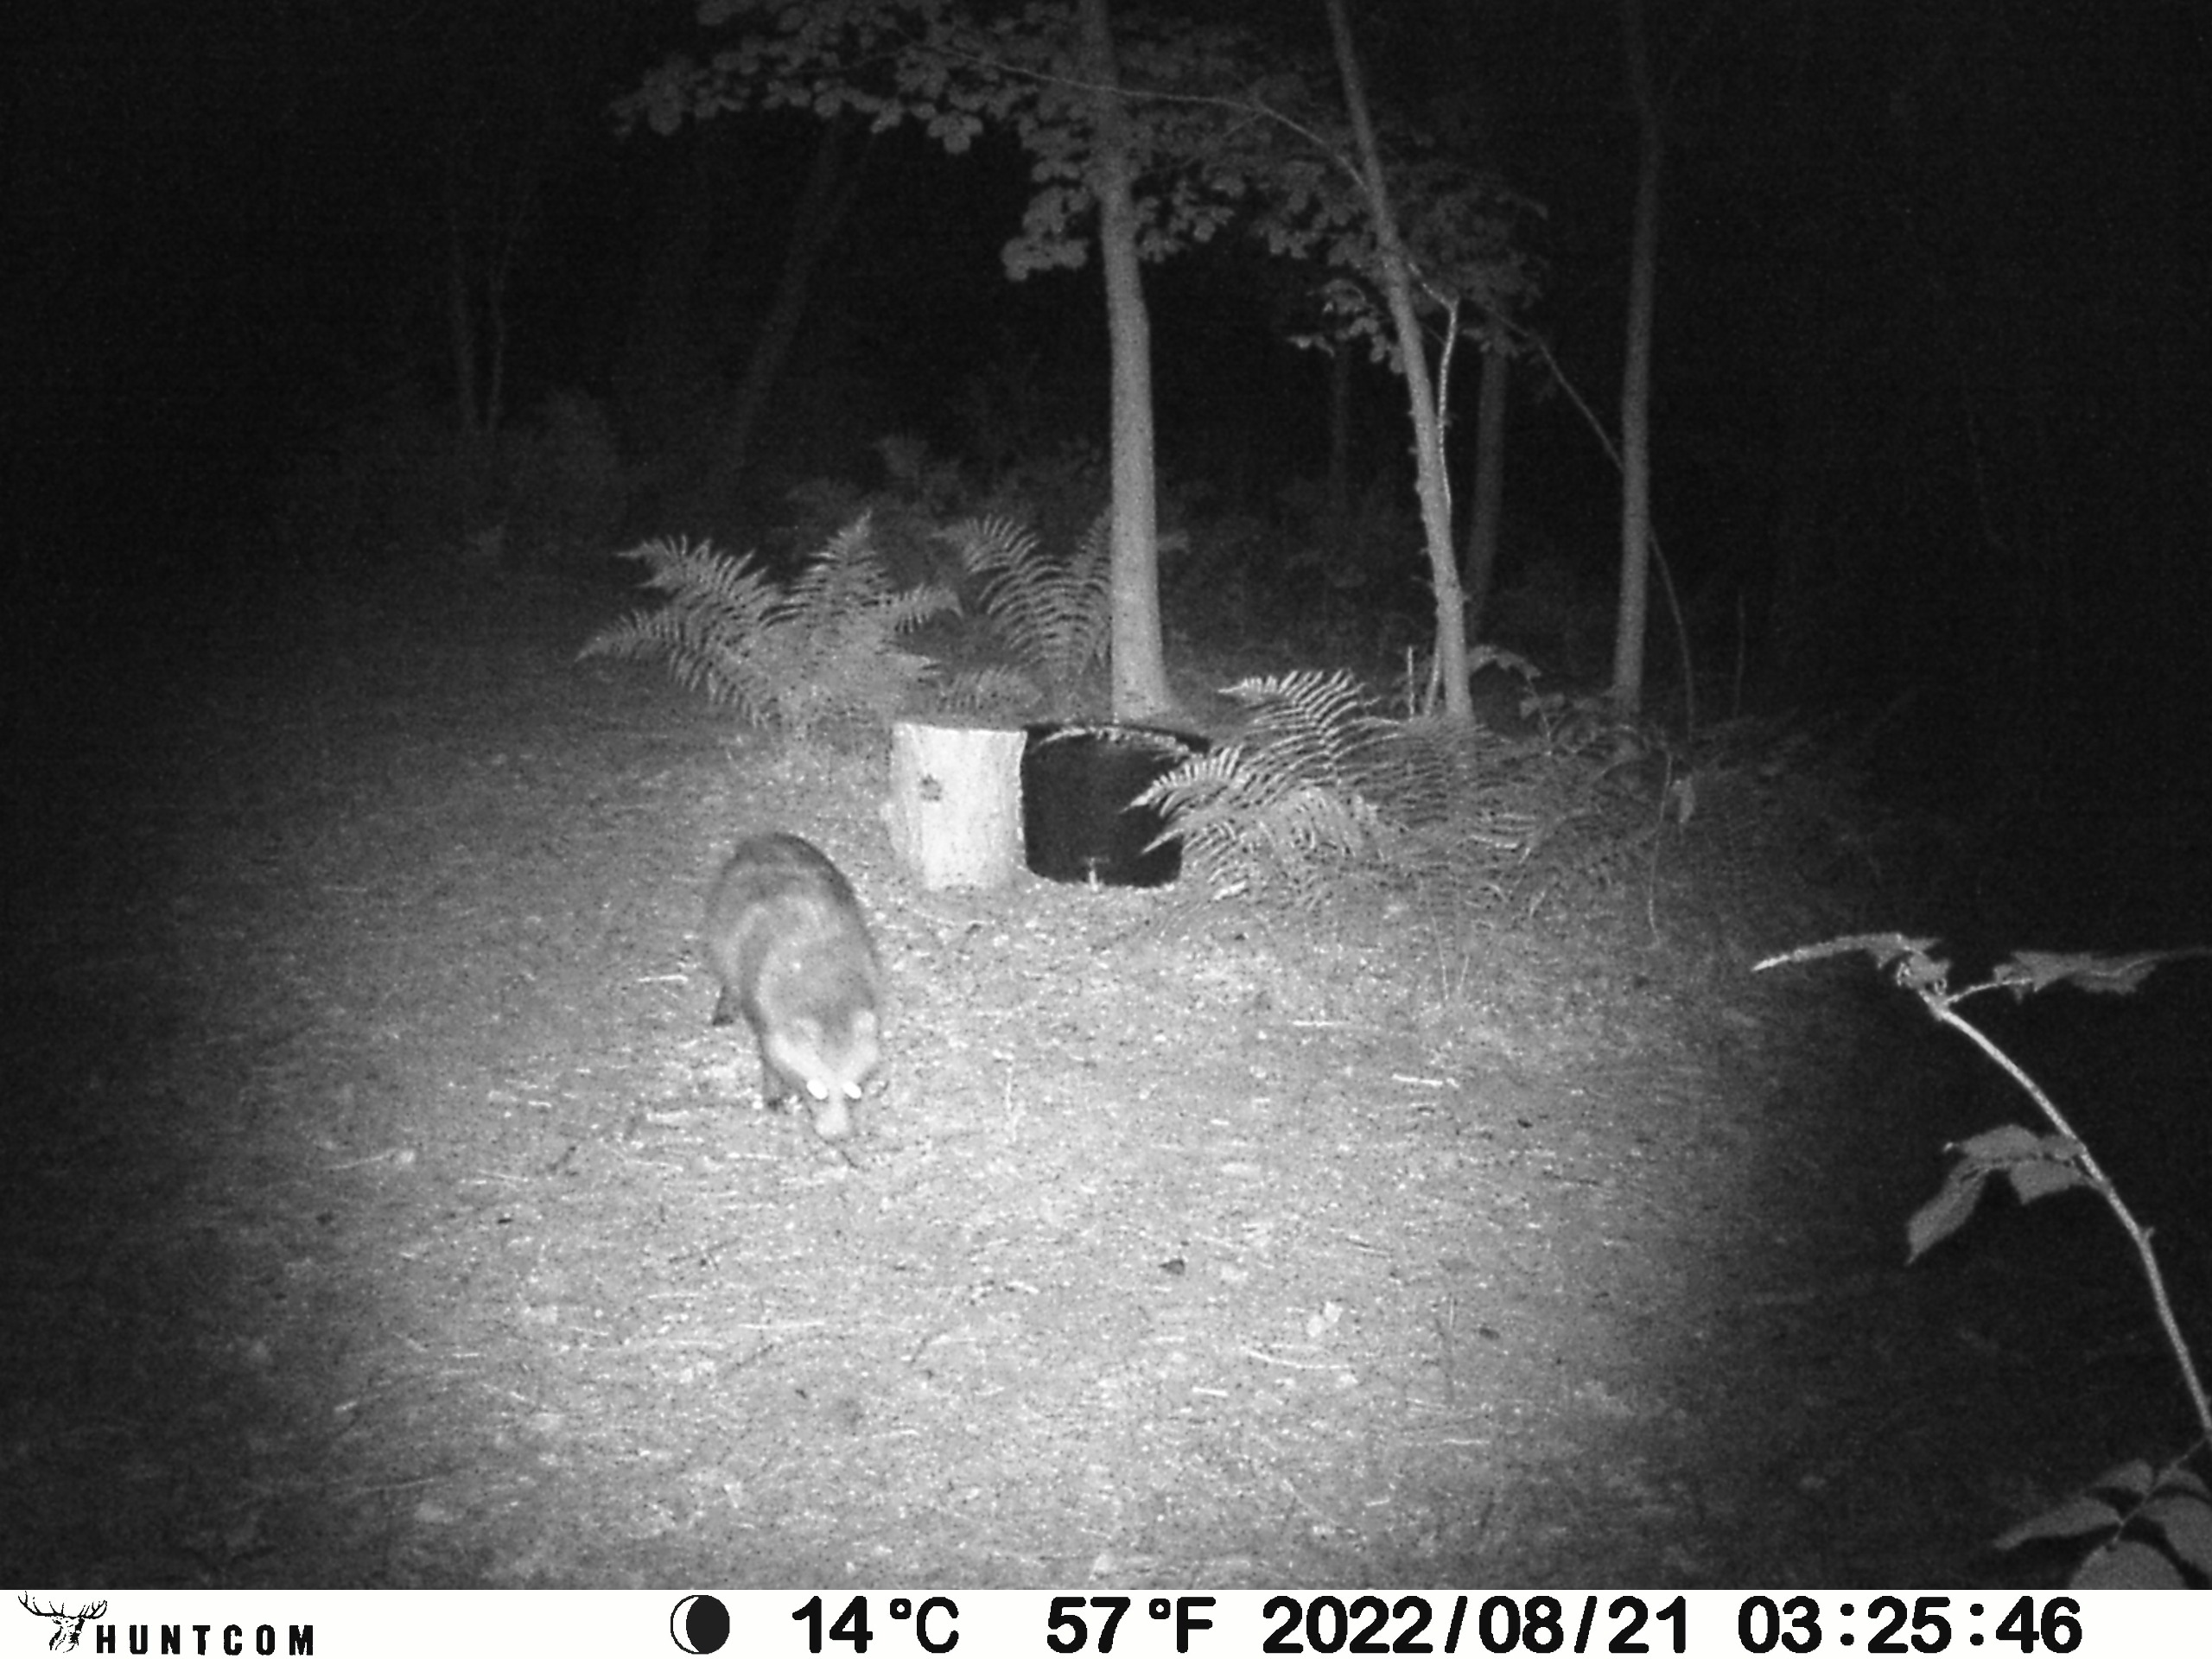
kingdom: Animalia
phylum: Chordata
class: Mammalia
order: Carnivora
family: Canidae
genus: Nyctereutes
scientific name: Nyctereutes procyonoides
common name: Mårhund
